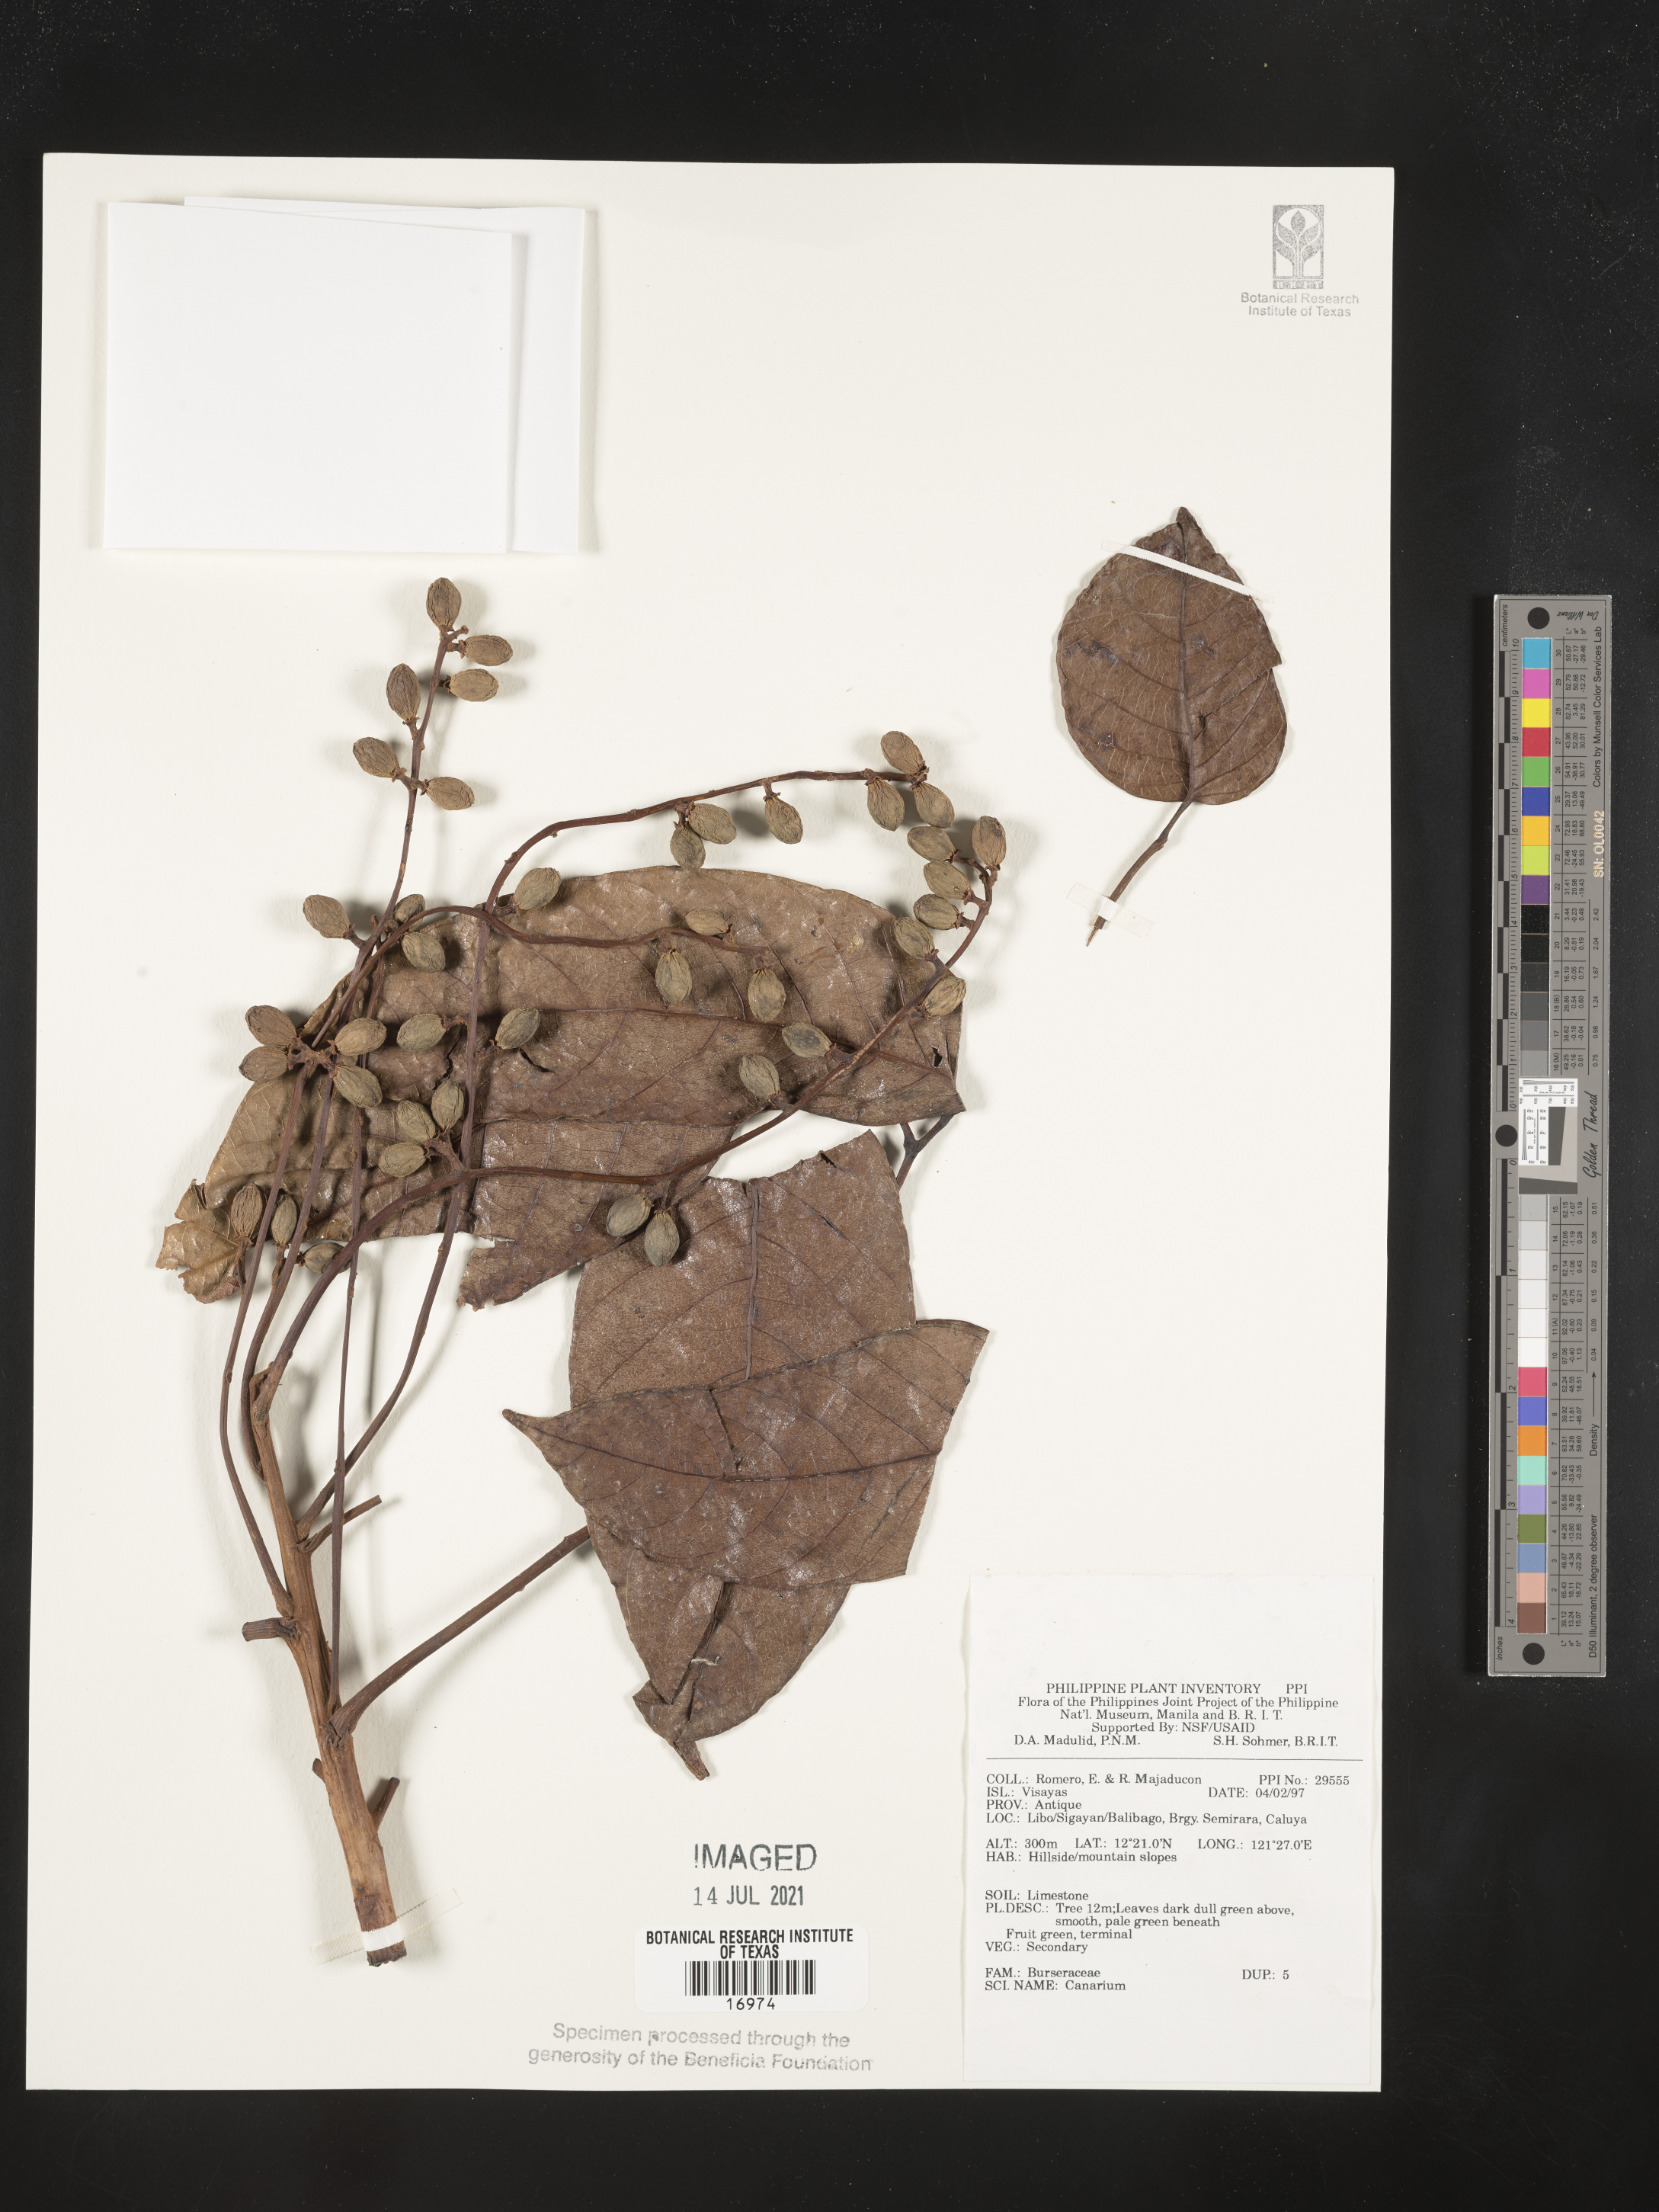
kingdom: Plantae
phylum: Tracheophyta
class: Magnoliopsida
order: Sapindales
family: Burseraceae
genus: Canarium
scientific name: Canarium
